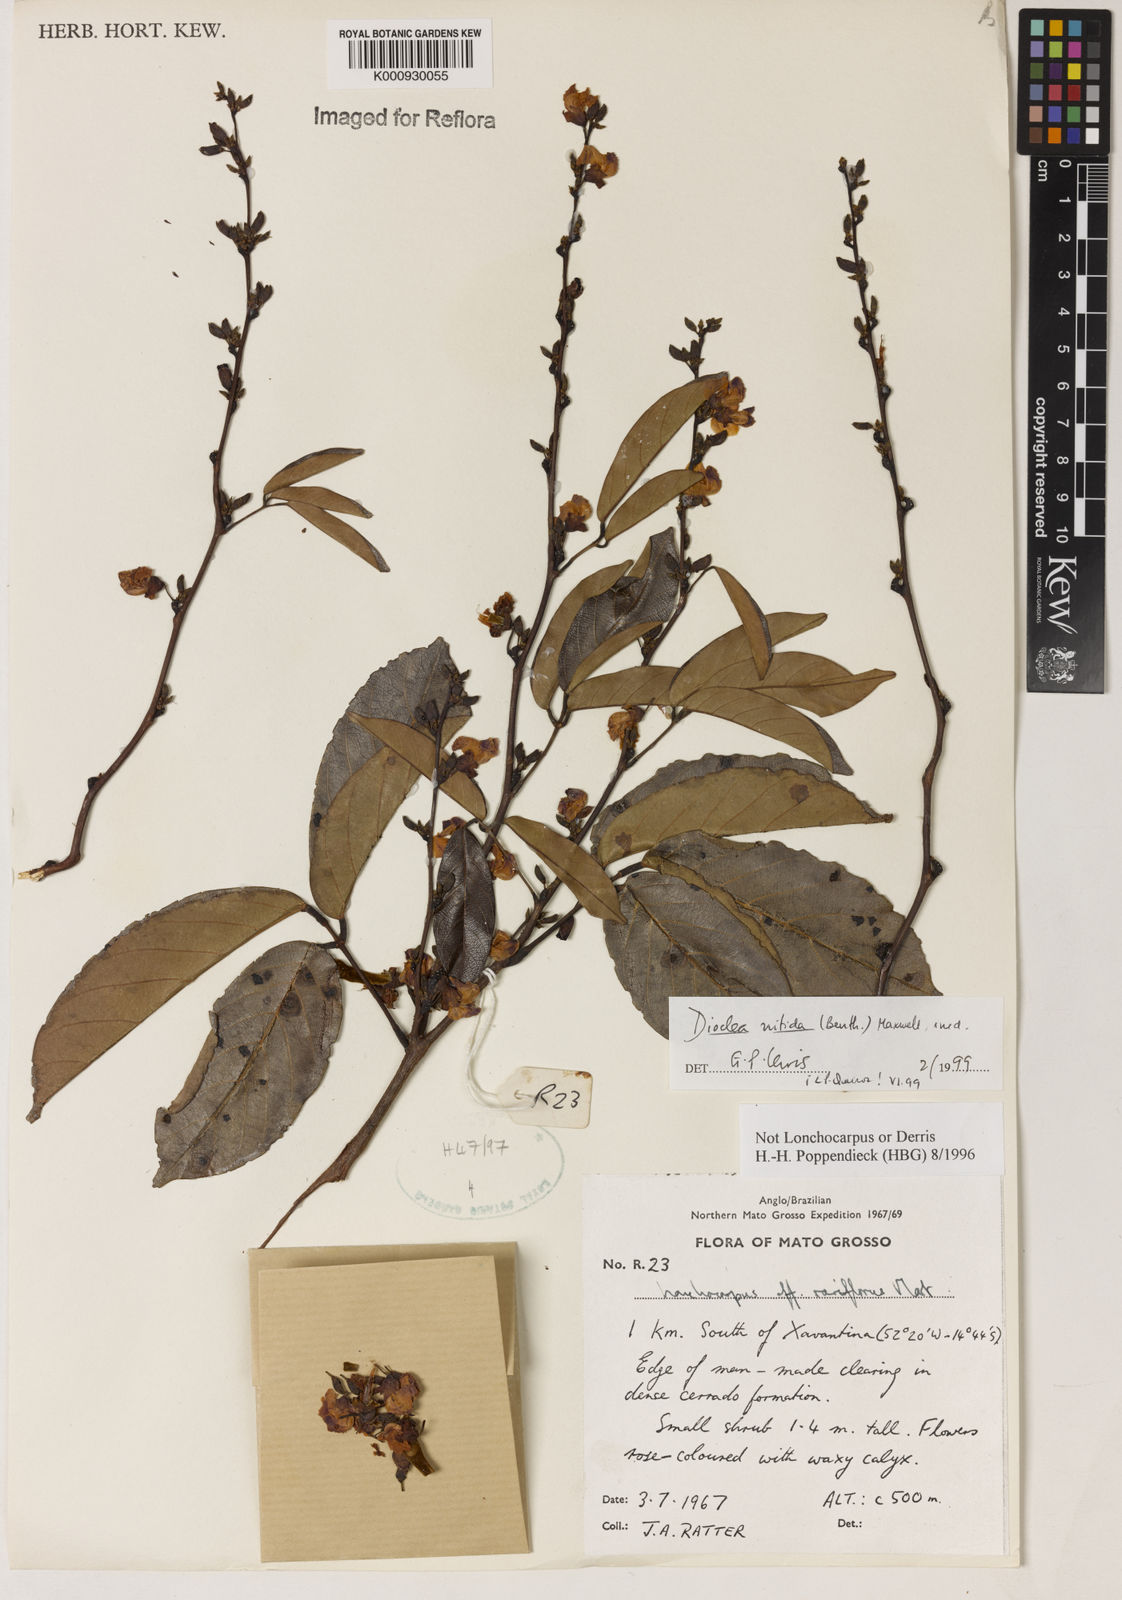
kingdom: Plantae
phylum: Tracheophyta
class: Magnoliopsida
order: Fabales
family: Fabaceae
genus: Dioclea
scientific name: Dioclea
